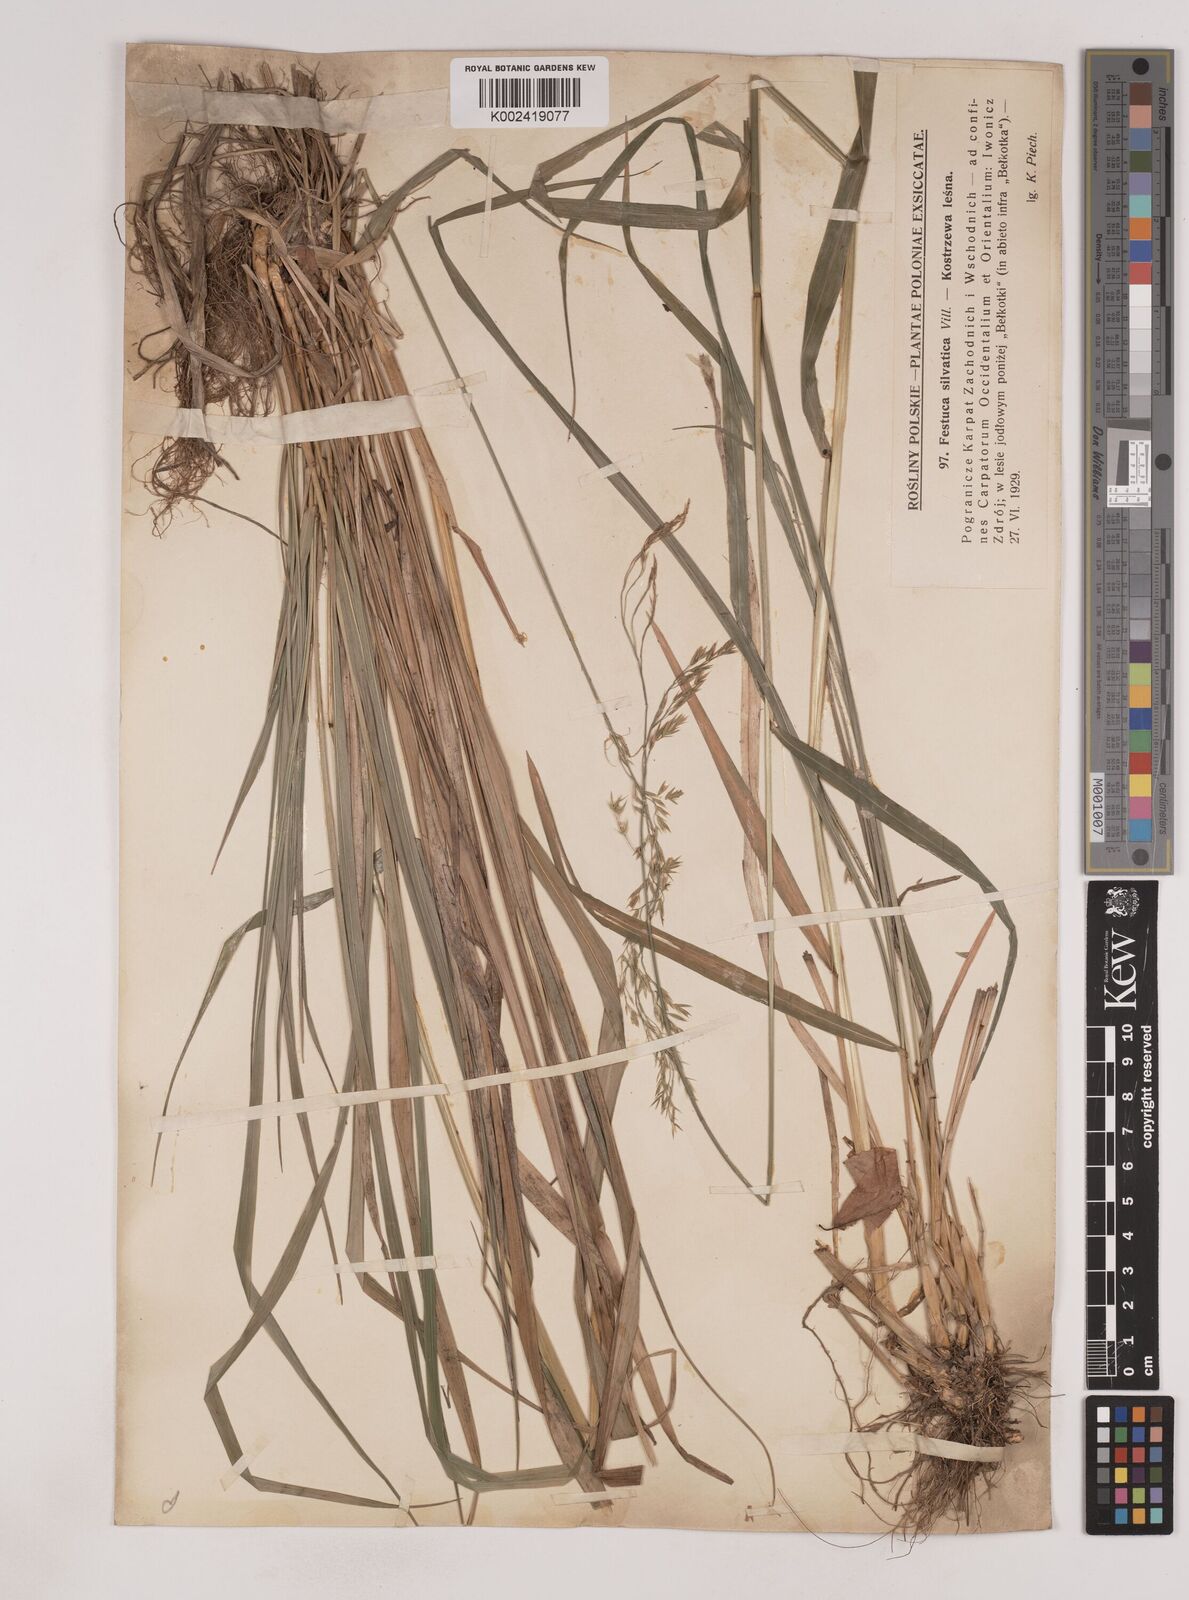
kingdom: Plantae
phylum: Tracheophyta
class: Liliopsida
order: Poales
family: Poaceae
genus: Festuca
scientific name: Festuca drymeja
